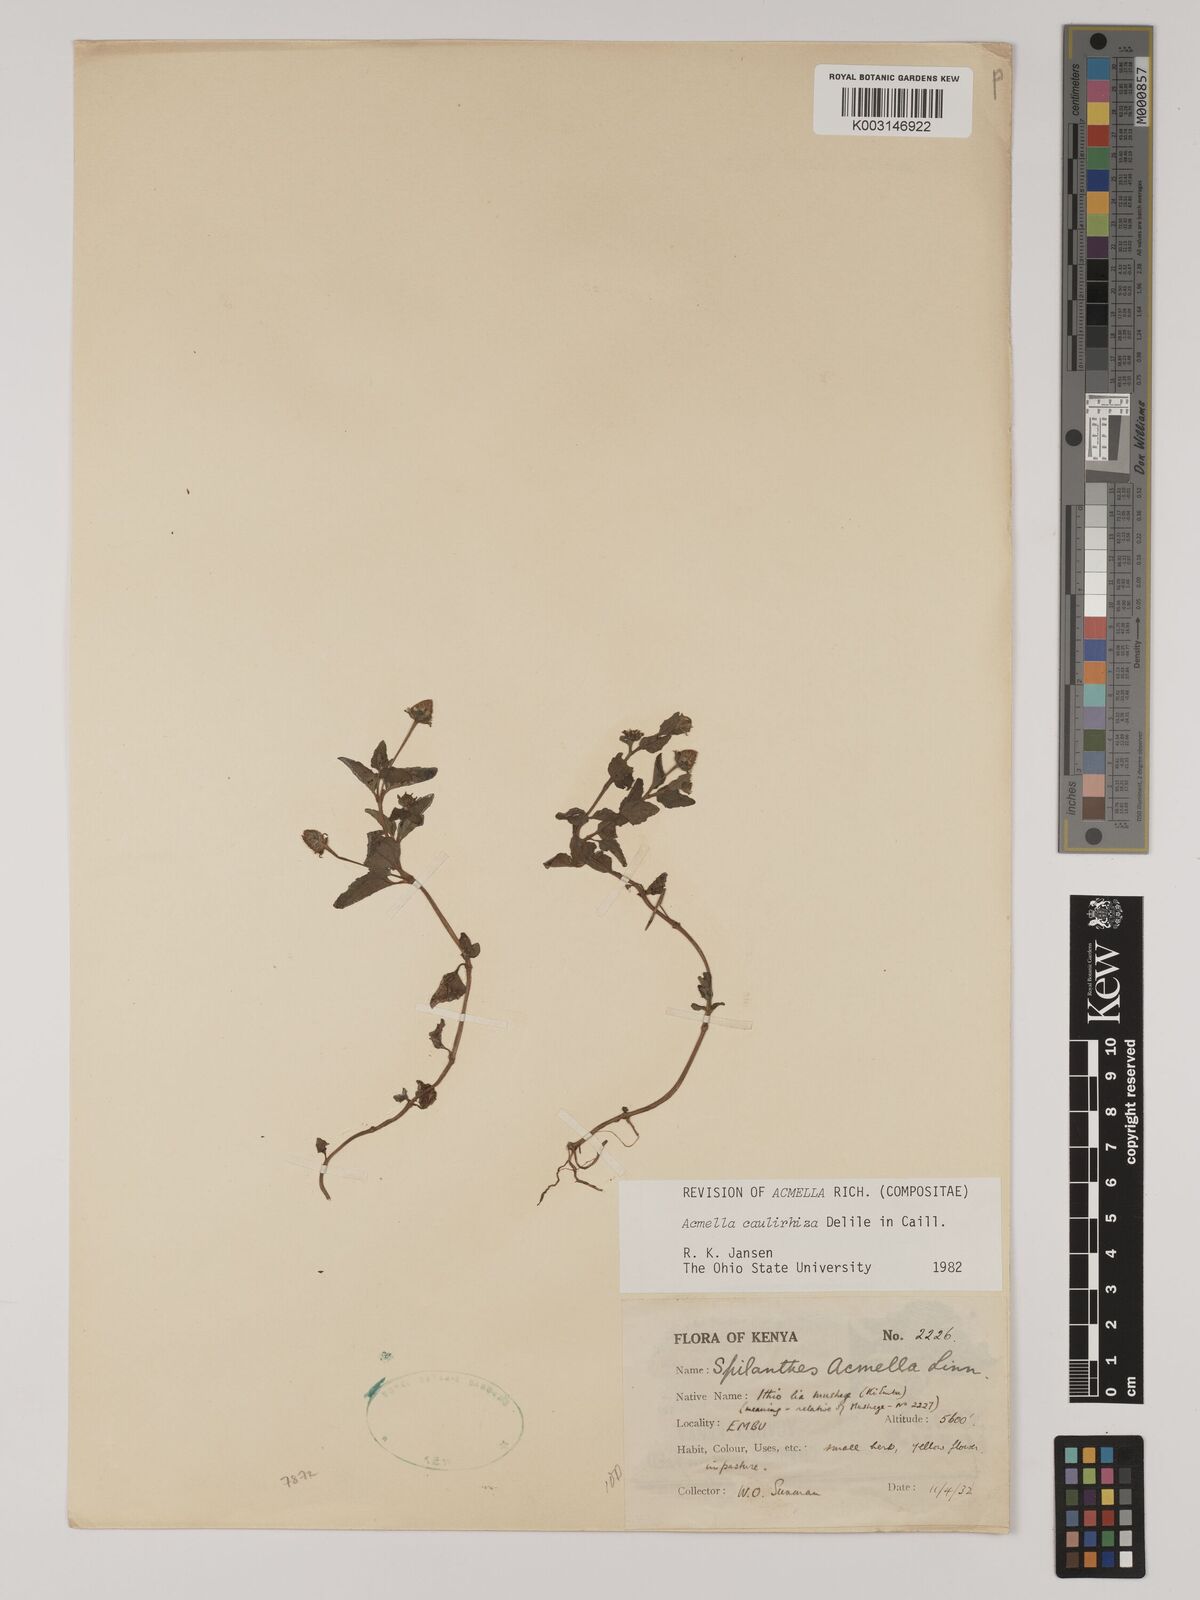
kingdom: Plantae
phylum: Tracheophyta
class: Magnoliopsida
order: Asterales
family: Asteraceae
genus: Acmella
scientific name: Acmella caulirhiza
